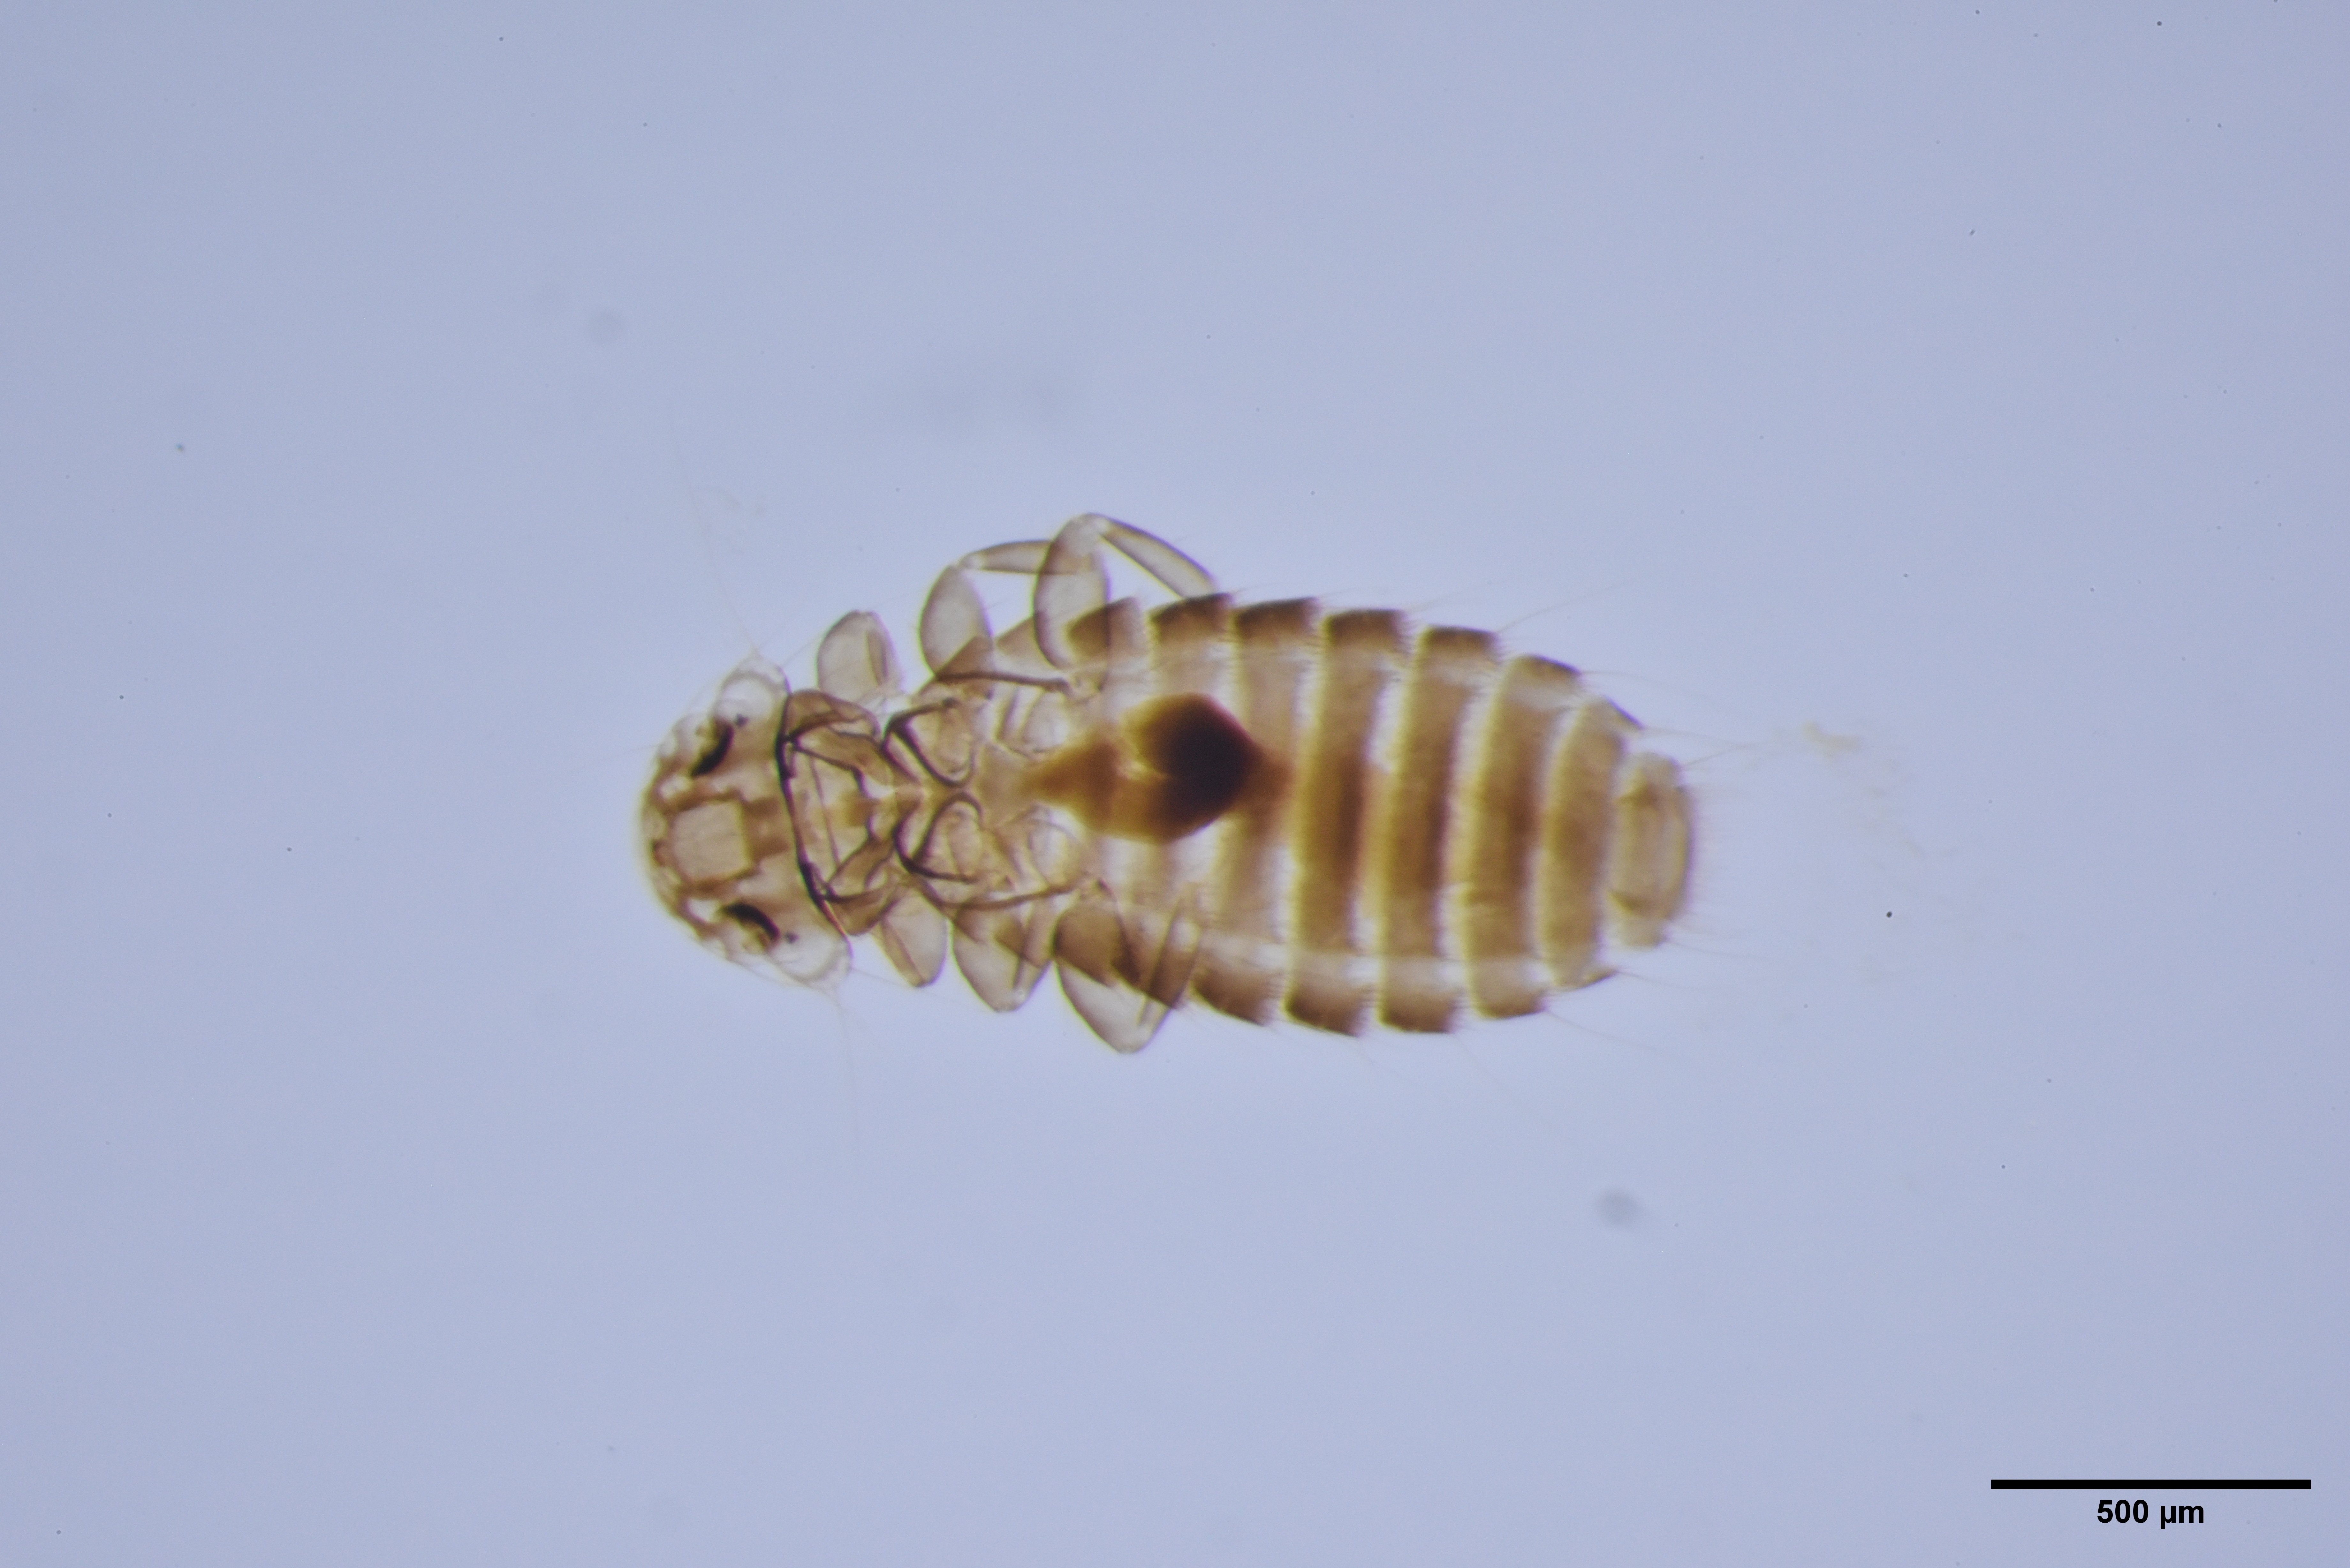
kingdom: Animalia
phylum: Arthropoda
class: Insecta
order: Psocodea
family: Menoponidae
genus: Menacanthus
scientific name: Menacanthus eurysternus
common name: Louse
